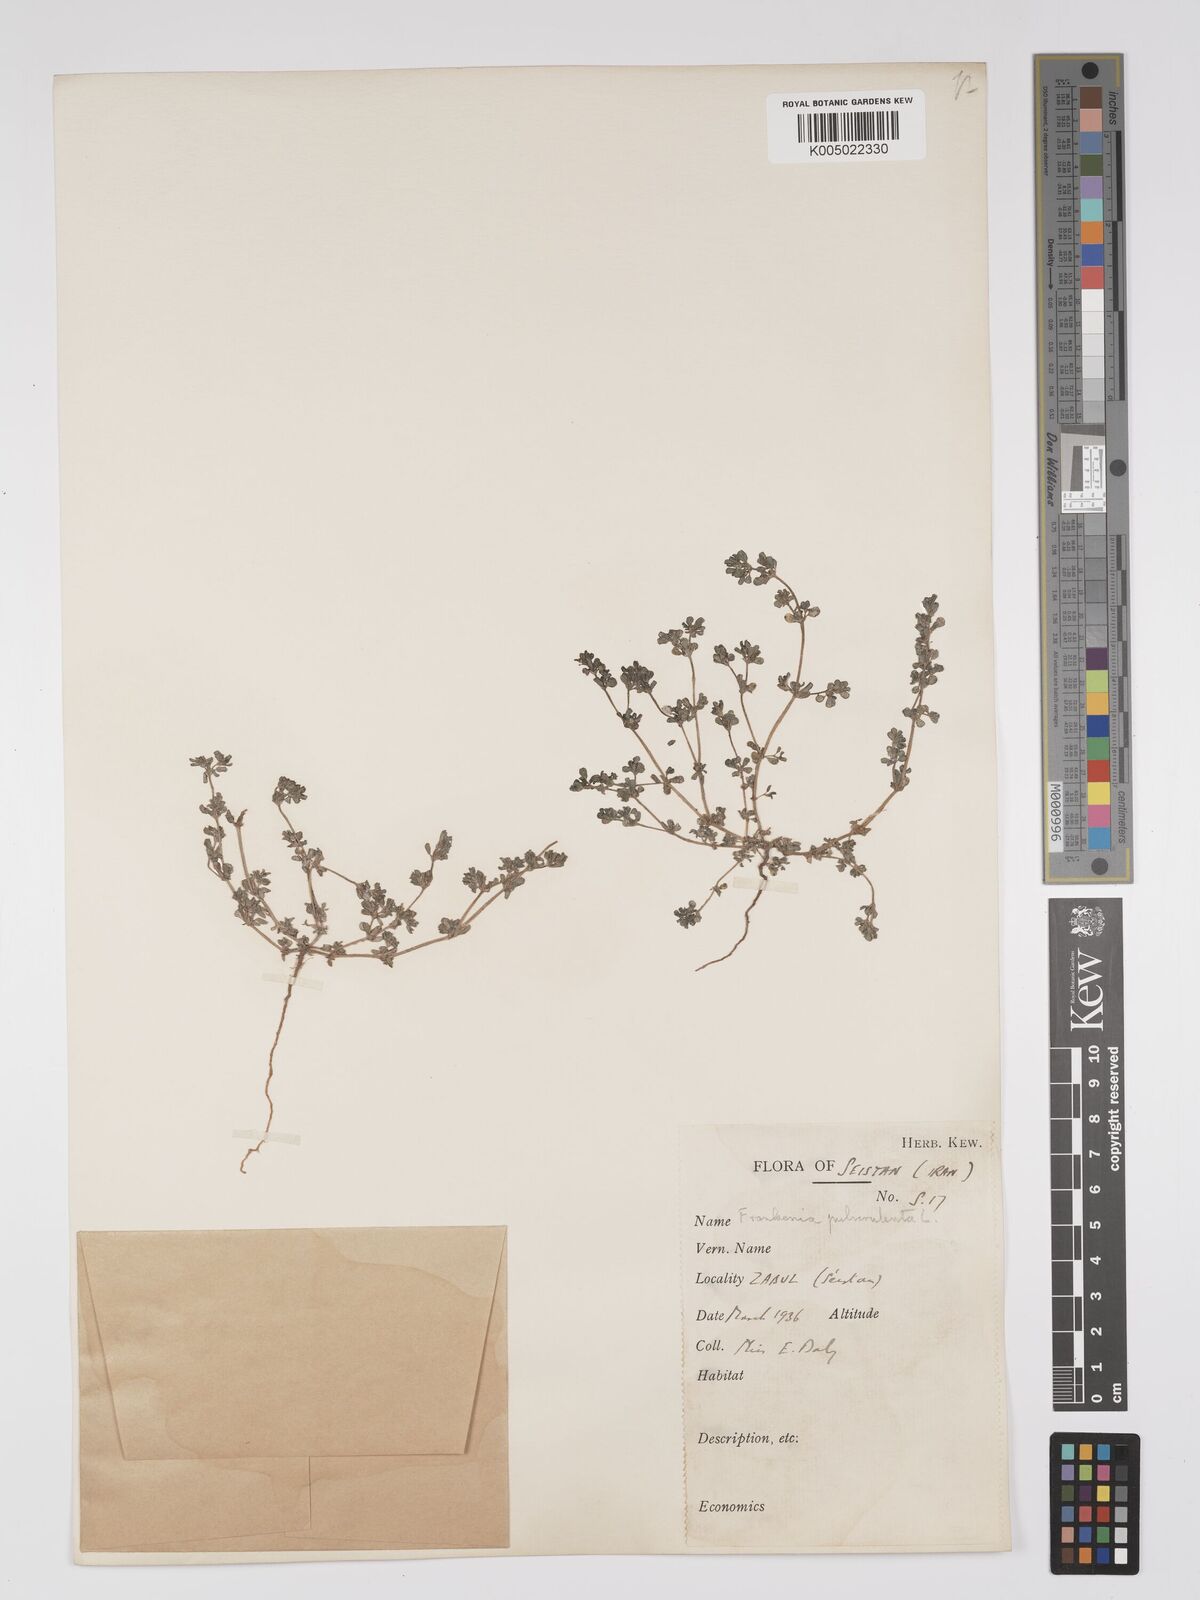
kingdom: Plantae
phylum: Tracheophyta
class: Magnoliopsida
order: Caryophyllales
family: Frankeniaceae
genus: Frankenia
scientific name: Frankenia pulverulenta
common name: European seaheath
